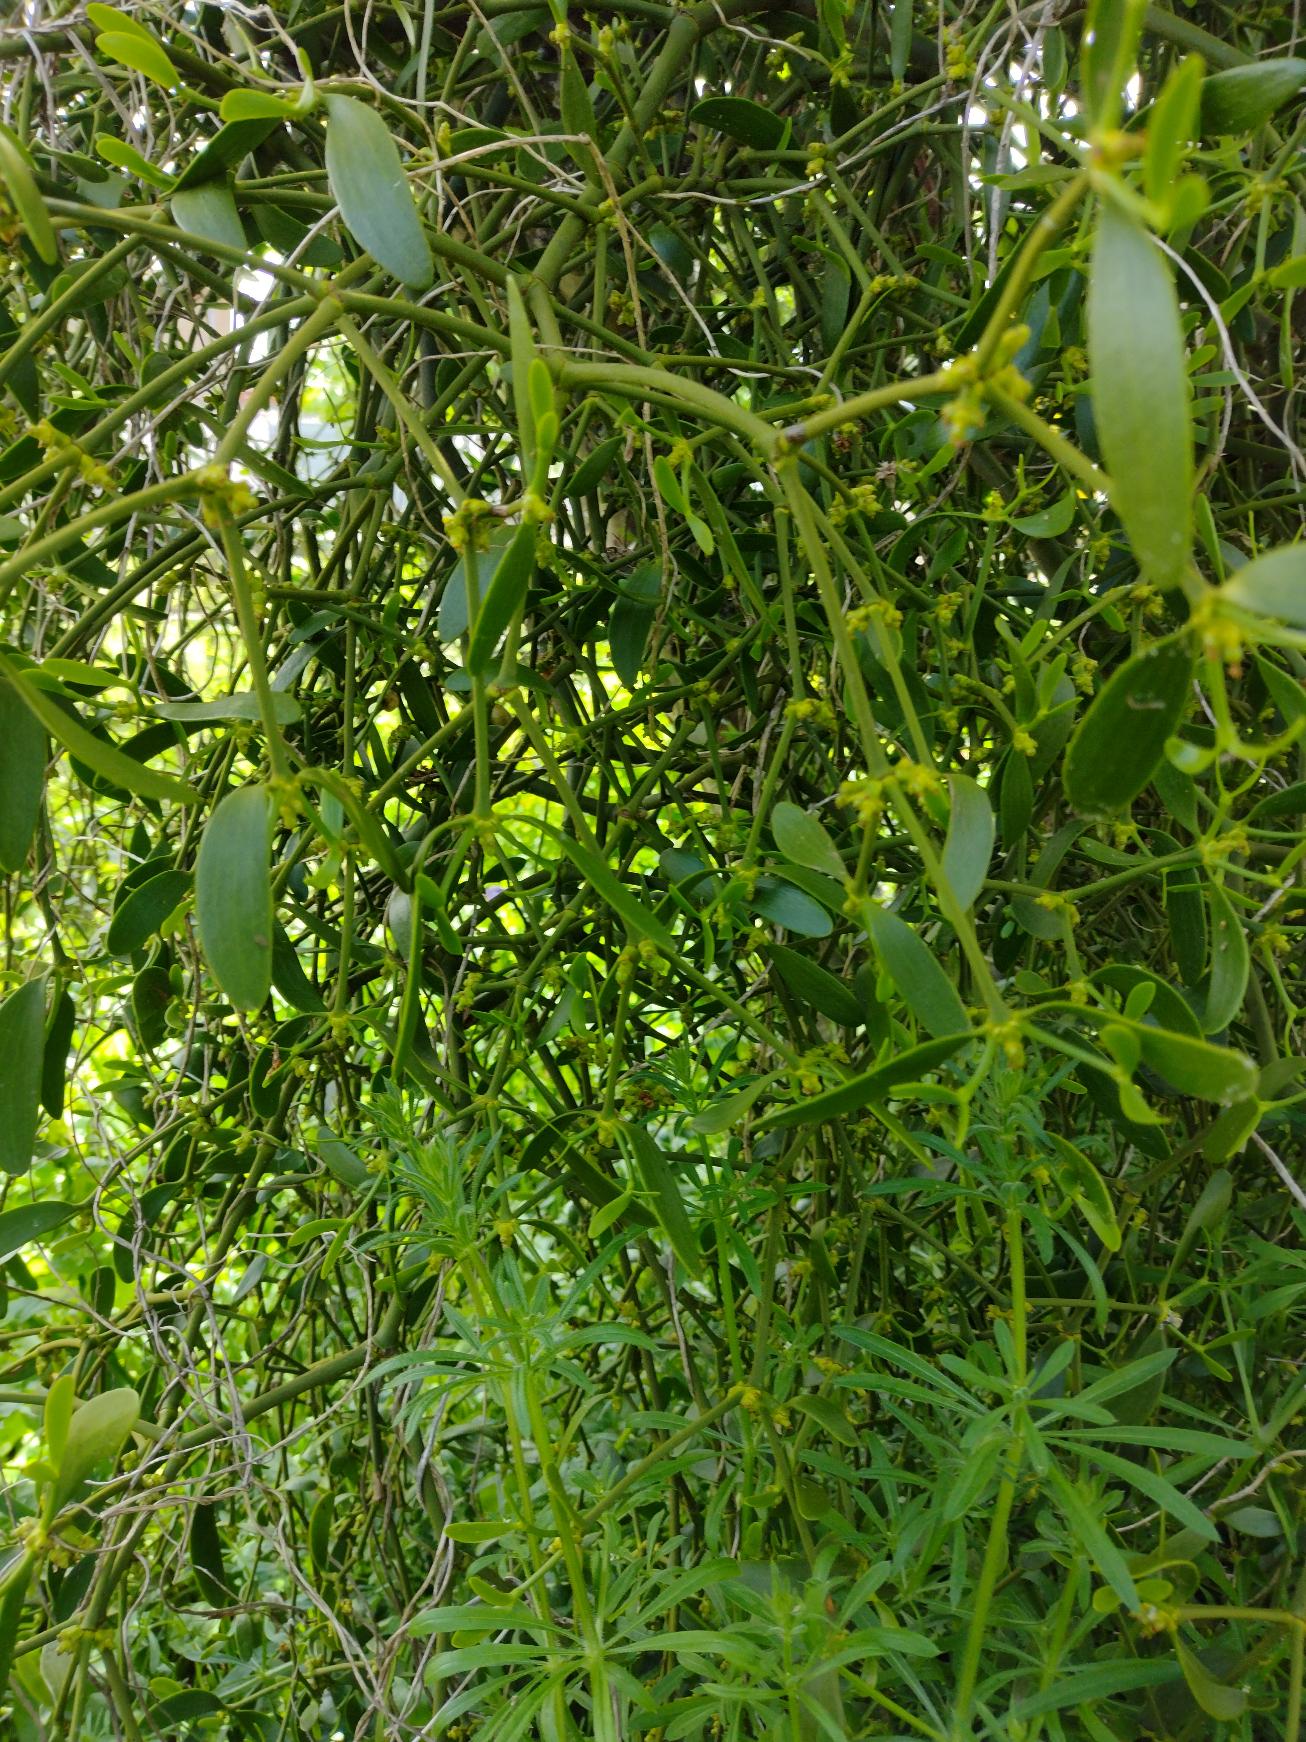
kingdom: Plantae
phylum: Tracheophyta
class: Magnoliopsida
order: Santalales
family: Viscaceae
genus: Viscum
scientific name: Viscum album
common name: Mistelten
